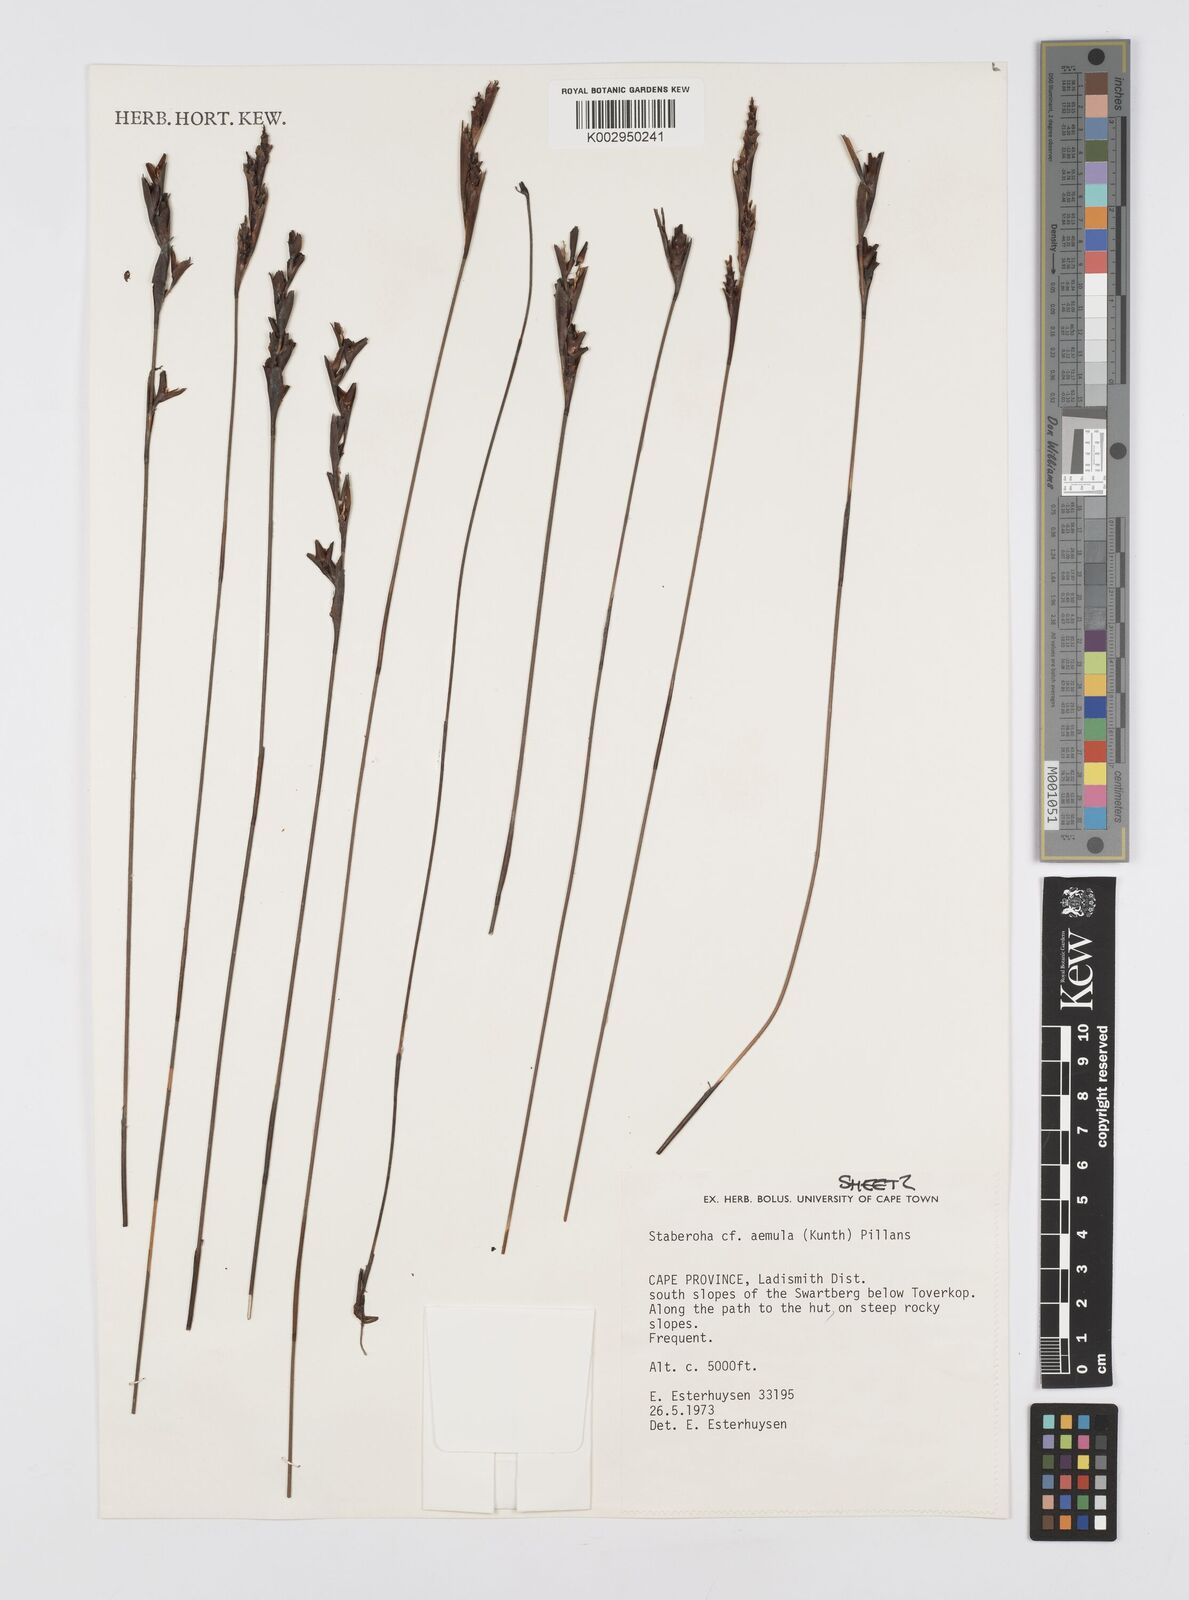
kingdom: Plantae
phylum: Tracheophyta
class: Liliopsida
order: Poales
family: Restionaceae
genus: Staberoha
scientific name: Staberoha aemula
